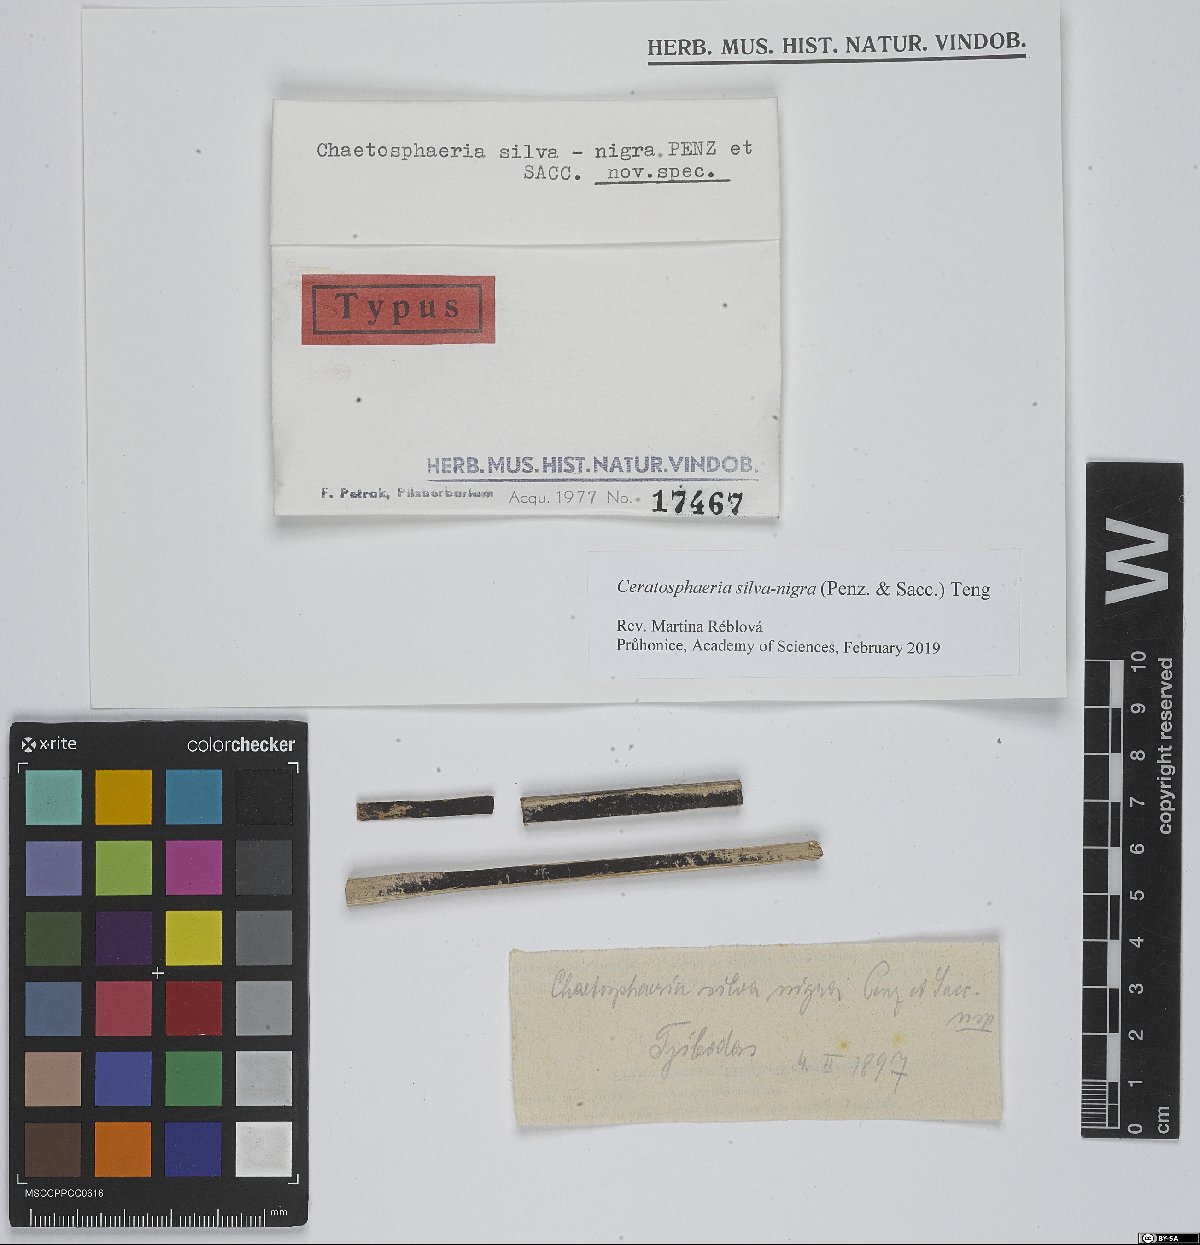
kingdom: Fungi
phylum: Ascomycota
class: Sordariomycetes
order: Magnaporthales
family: Ceratosphaeriaceae
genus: Ceratosphaeria
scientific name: Ceratosphaeria silva-nigra
